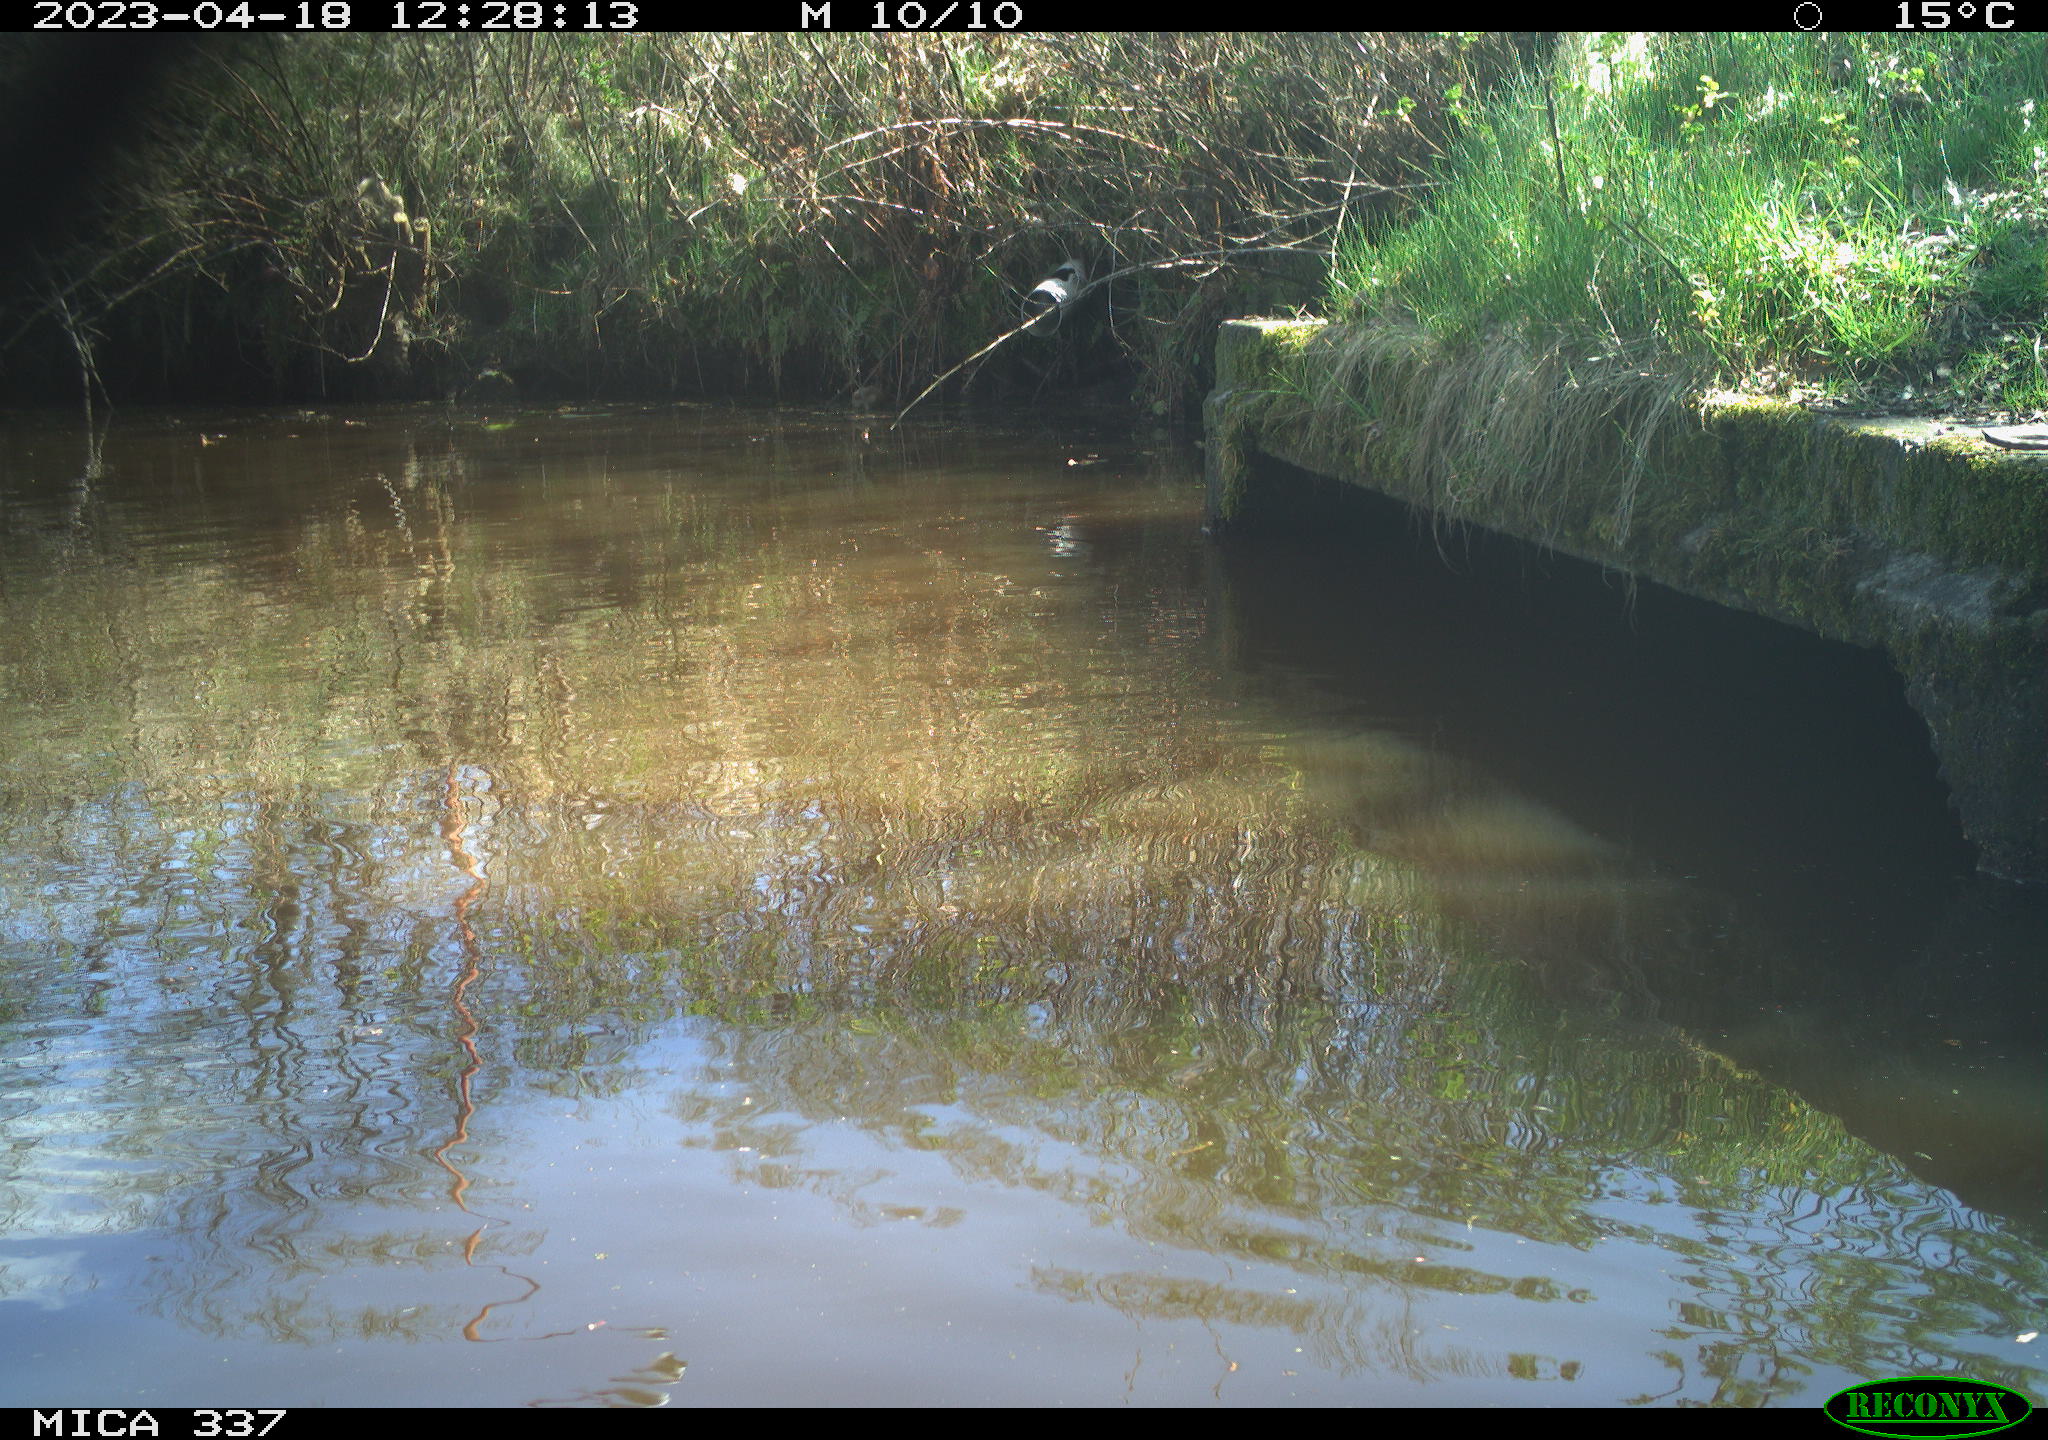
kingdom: Animalia
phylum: Chordata
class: Aves
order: Gruiformes
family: Rallidae
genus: Gallinula
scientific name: Gallinula chloropus
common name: Common moorhen
